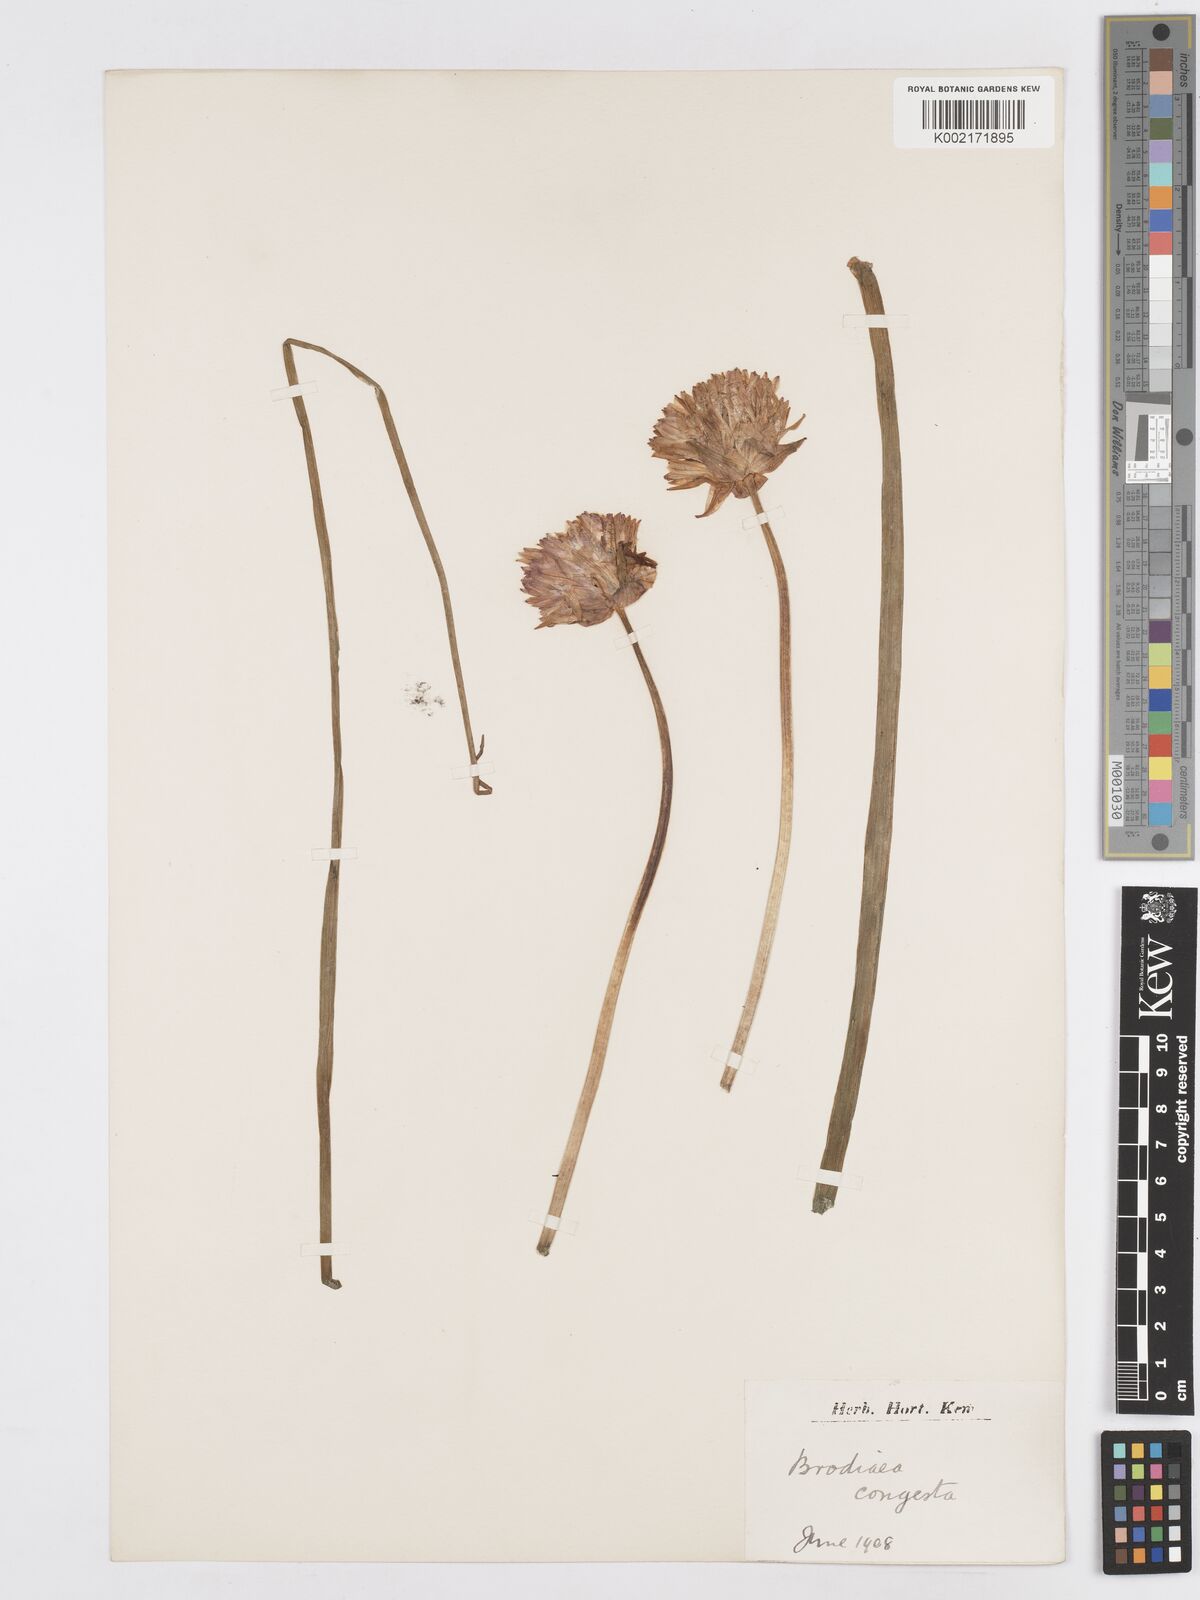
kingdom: Plantae
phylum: Tracheophyta
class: Liliopsida
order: Asparagales
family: Asparagaceae
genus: Dichelostemma
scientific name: Dichelostemma congestum
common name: Fork-tooth ookow
